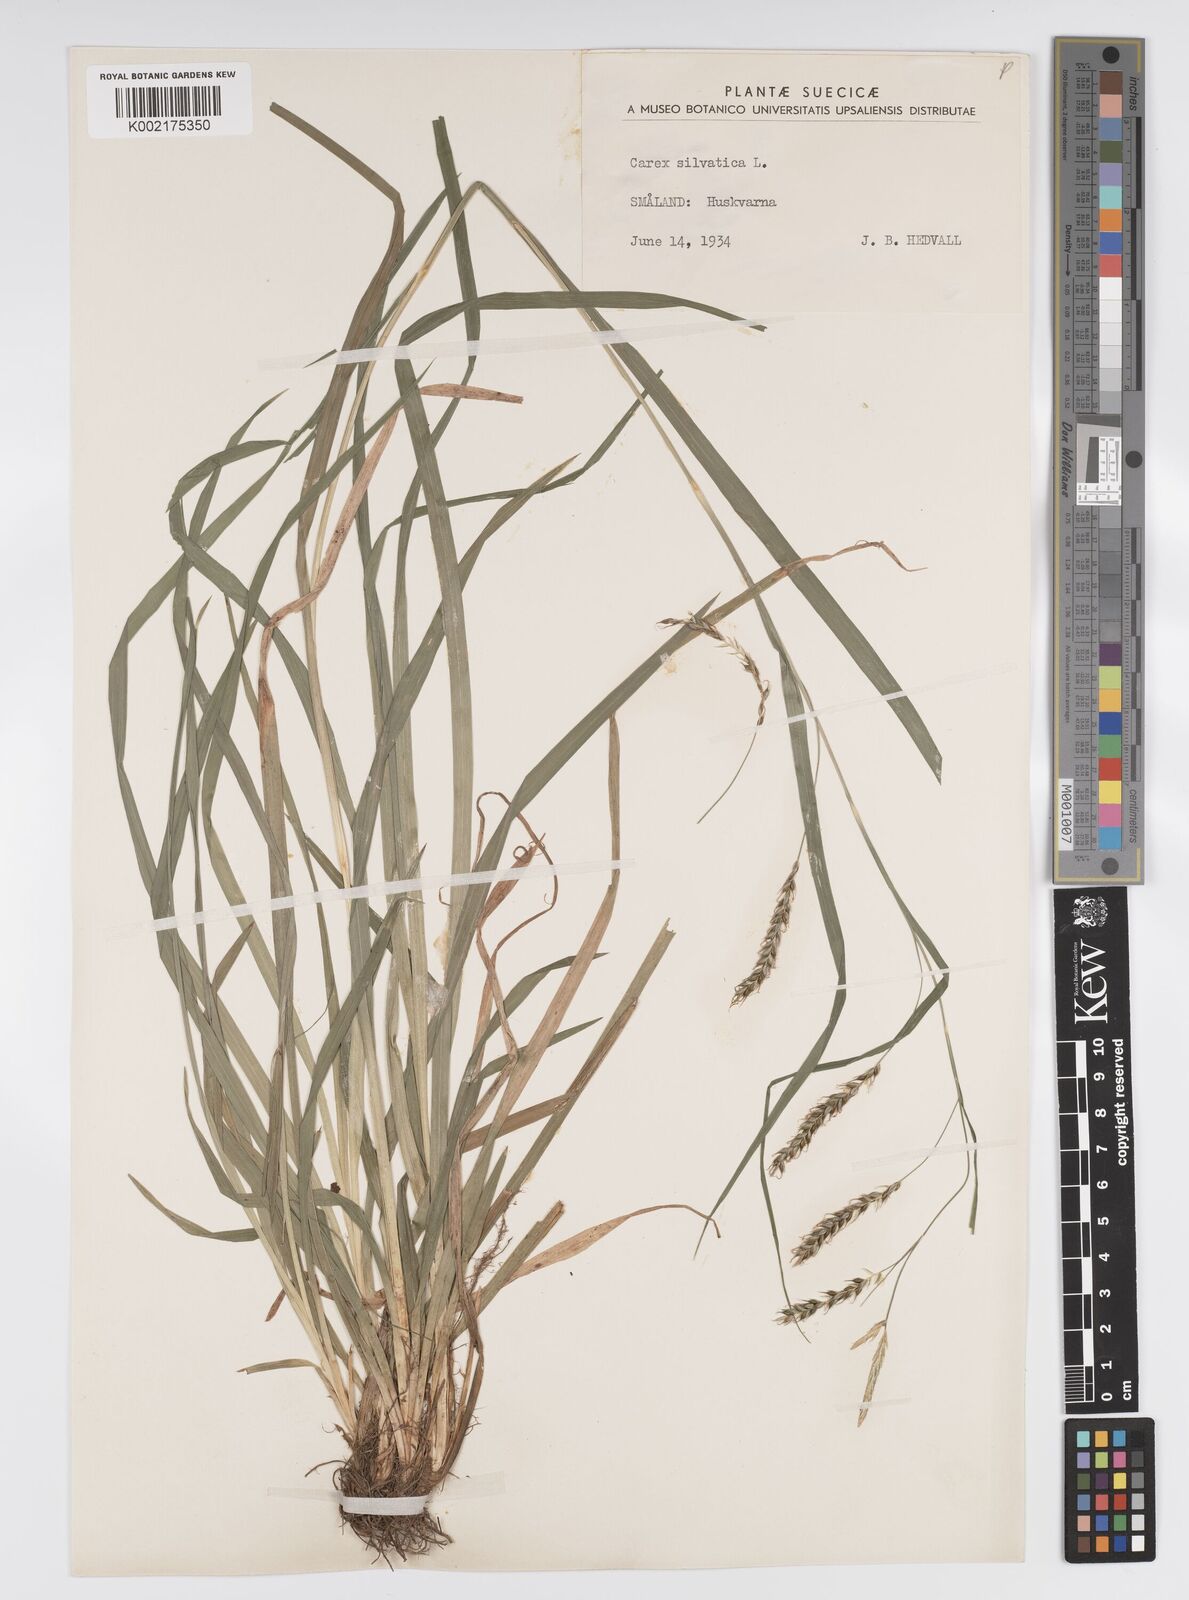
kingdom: Plantae
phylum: Tracheophyta
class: Liliopsida
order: Poales
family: Cyperaceae
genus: Carex
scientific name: Carex sylvatica
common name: Wood-sedge
